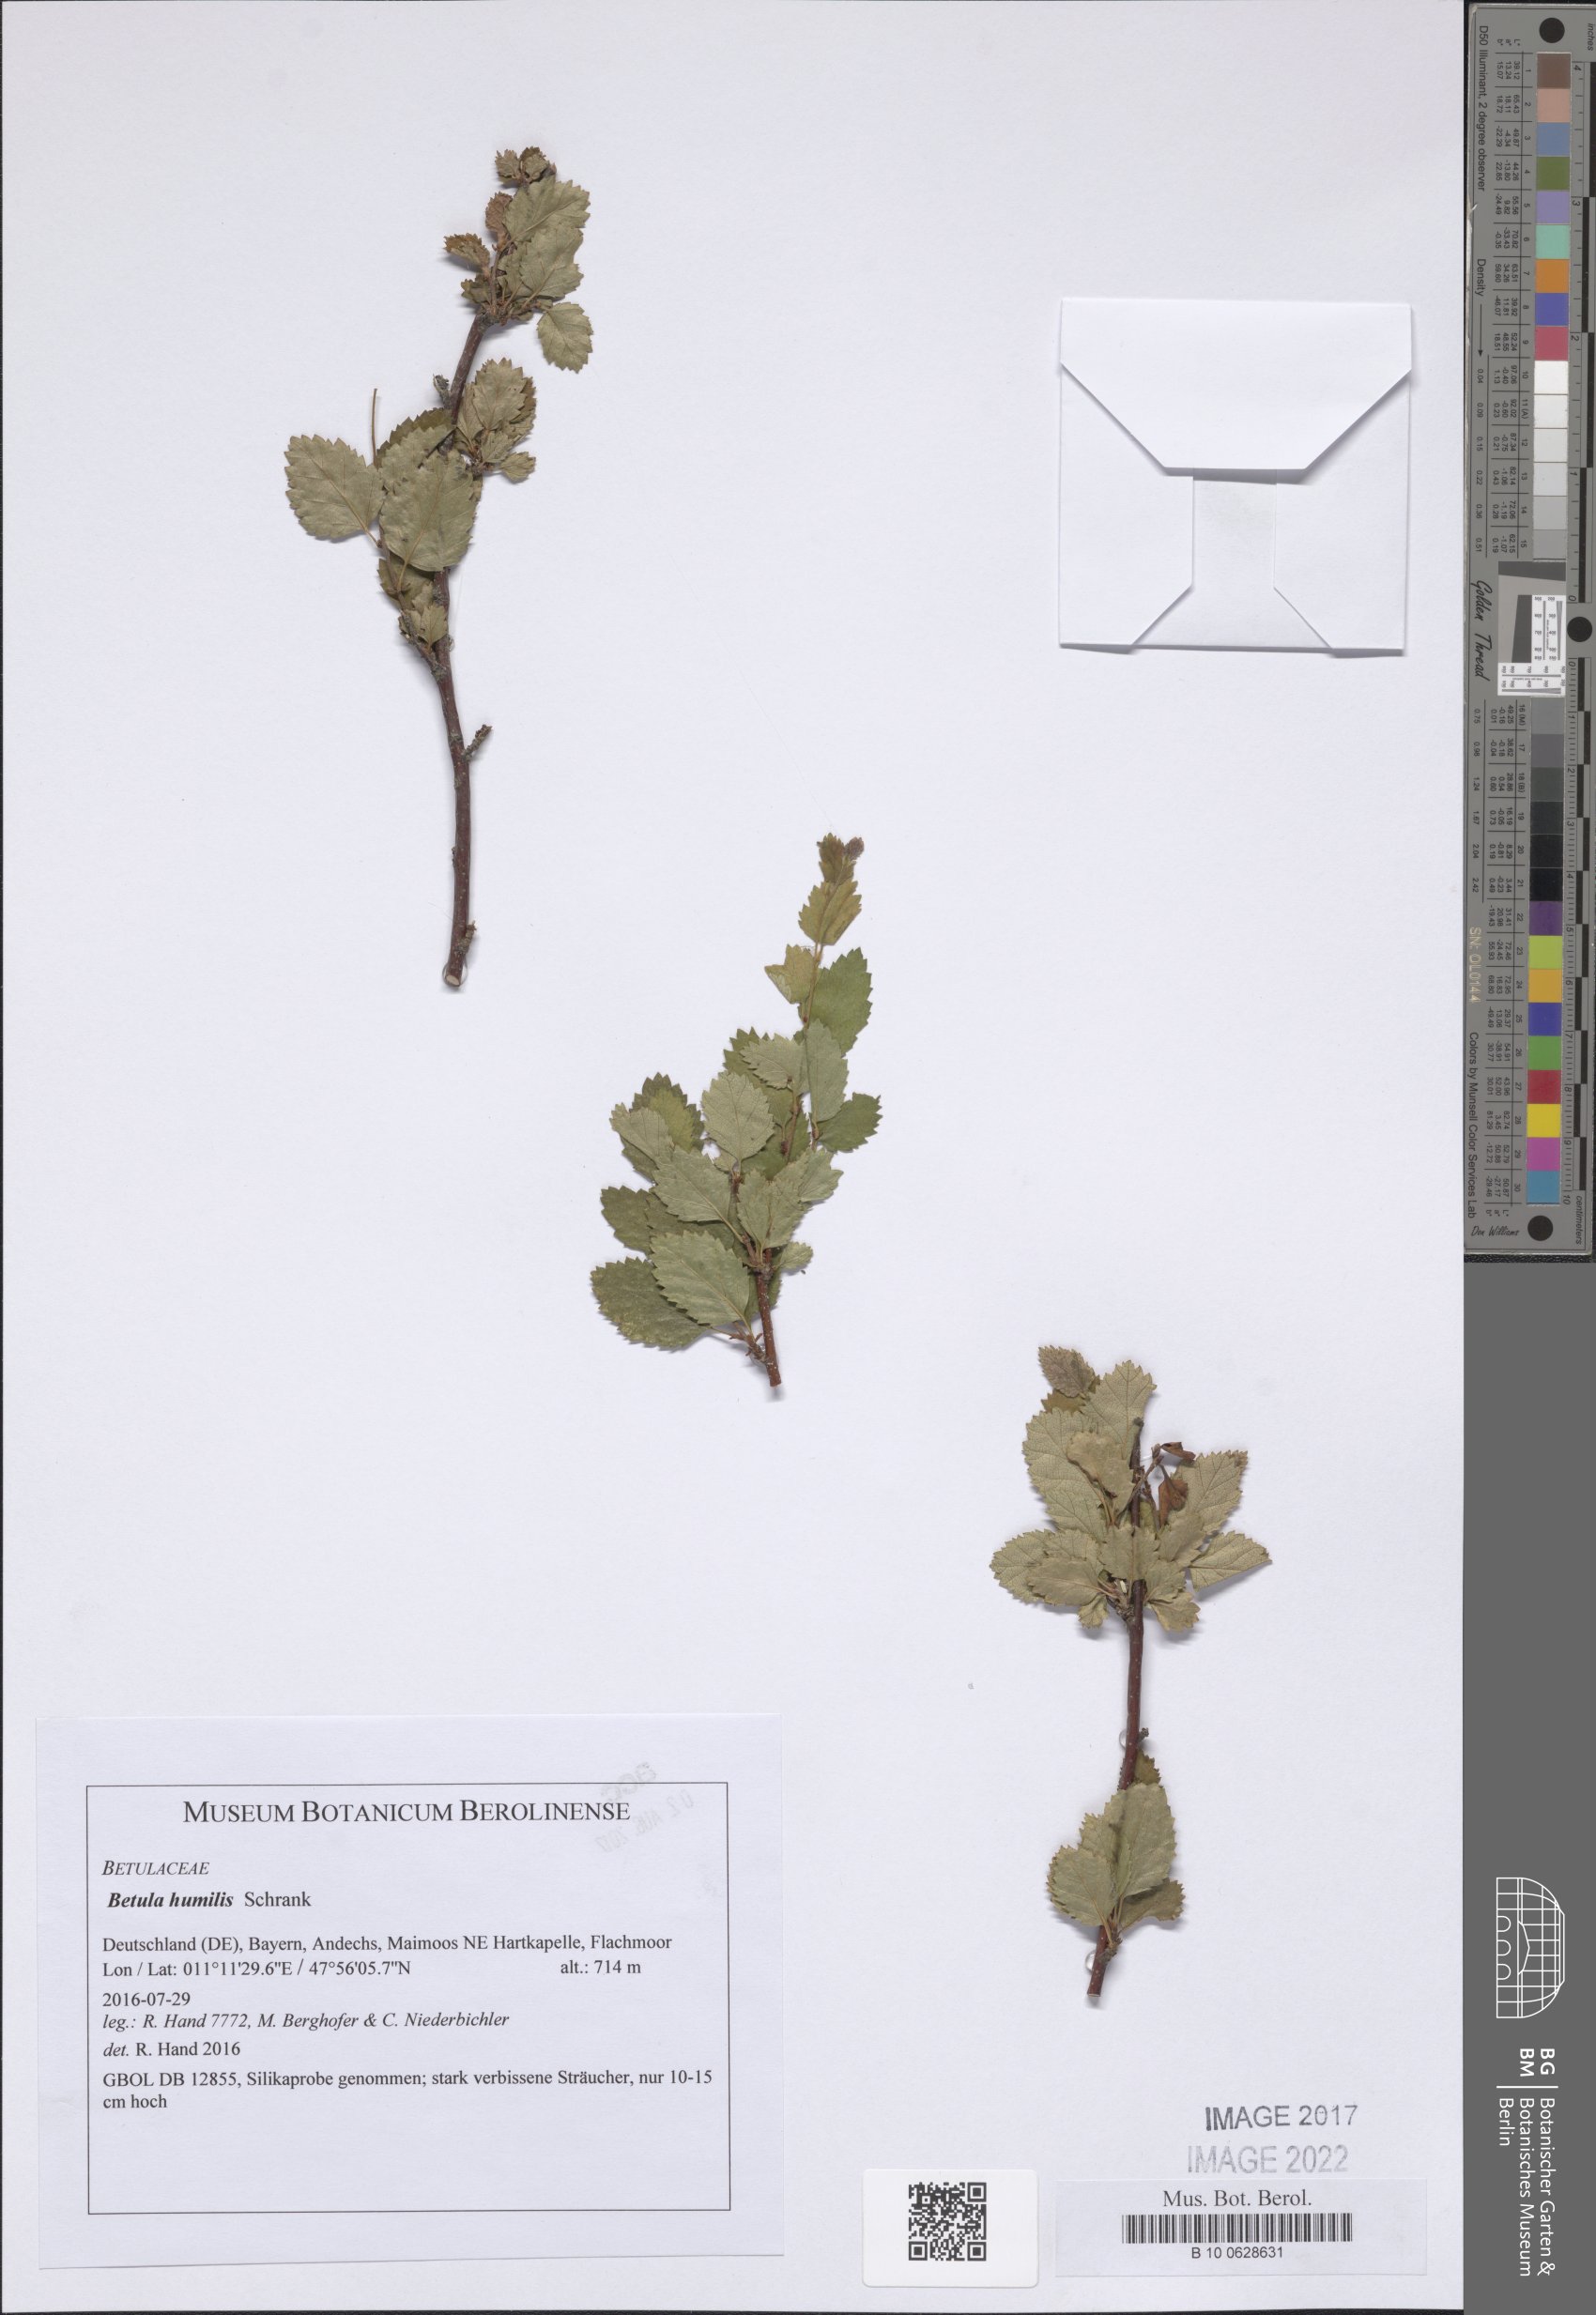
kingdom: Plantae
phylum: Tracheophyta
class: Magnoliopsida
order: Fagales
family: Betulaceae
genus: Betula
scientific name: Betula humilis
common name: Shrubby birch
